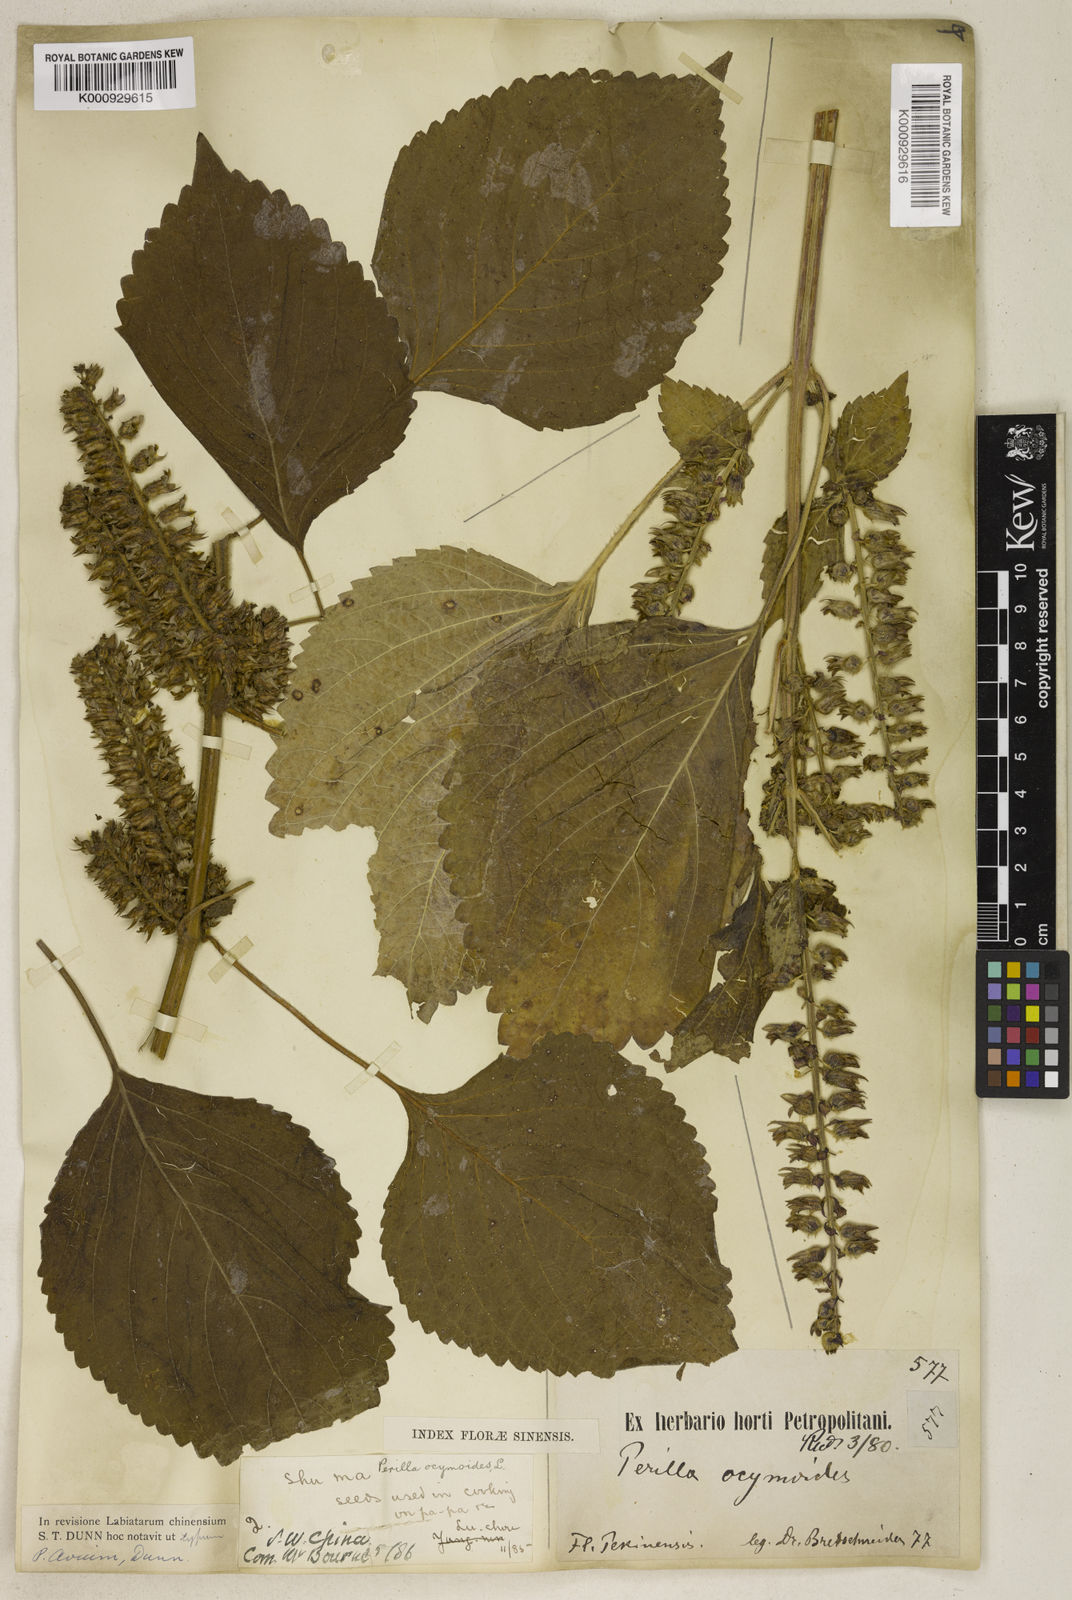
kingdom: Plantae
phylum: Tracheophyta
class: Magnoliopsida
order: Lamiales
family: Lamiaceae
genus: Perilla
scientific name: Perilla frutescens
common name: Perilla
